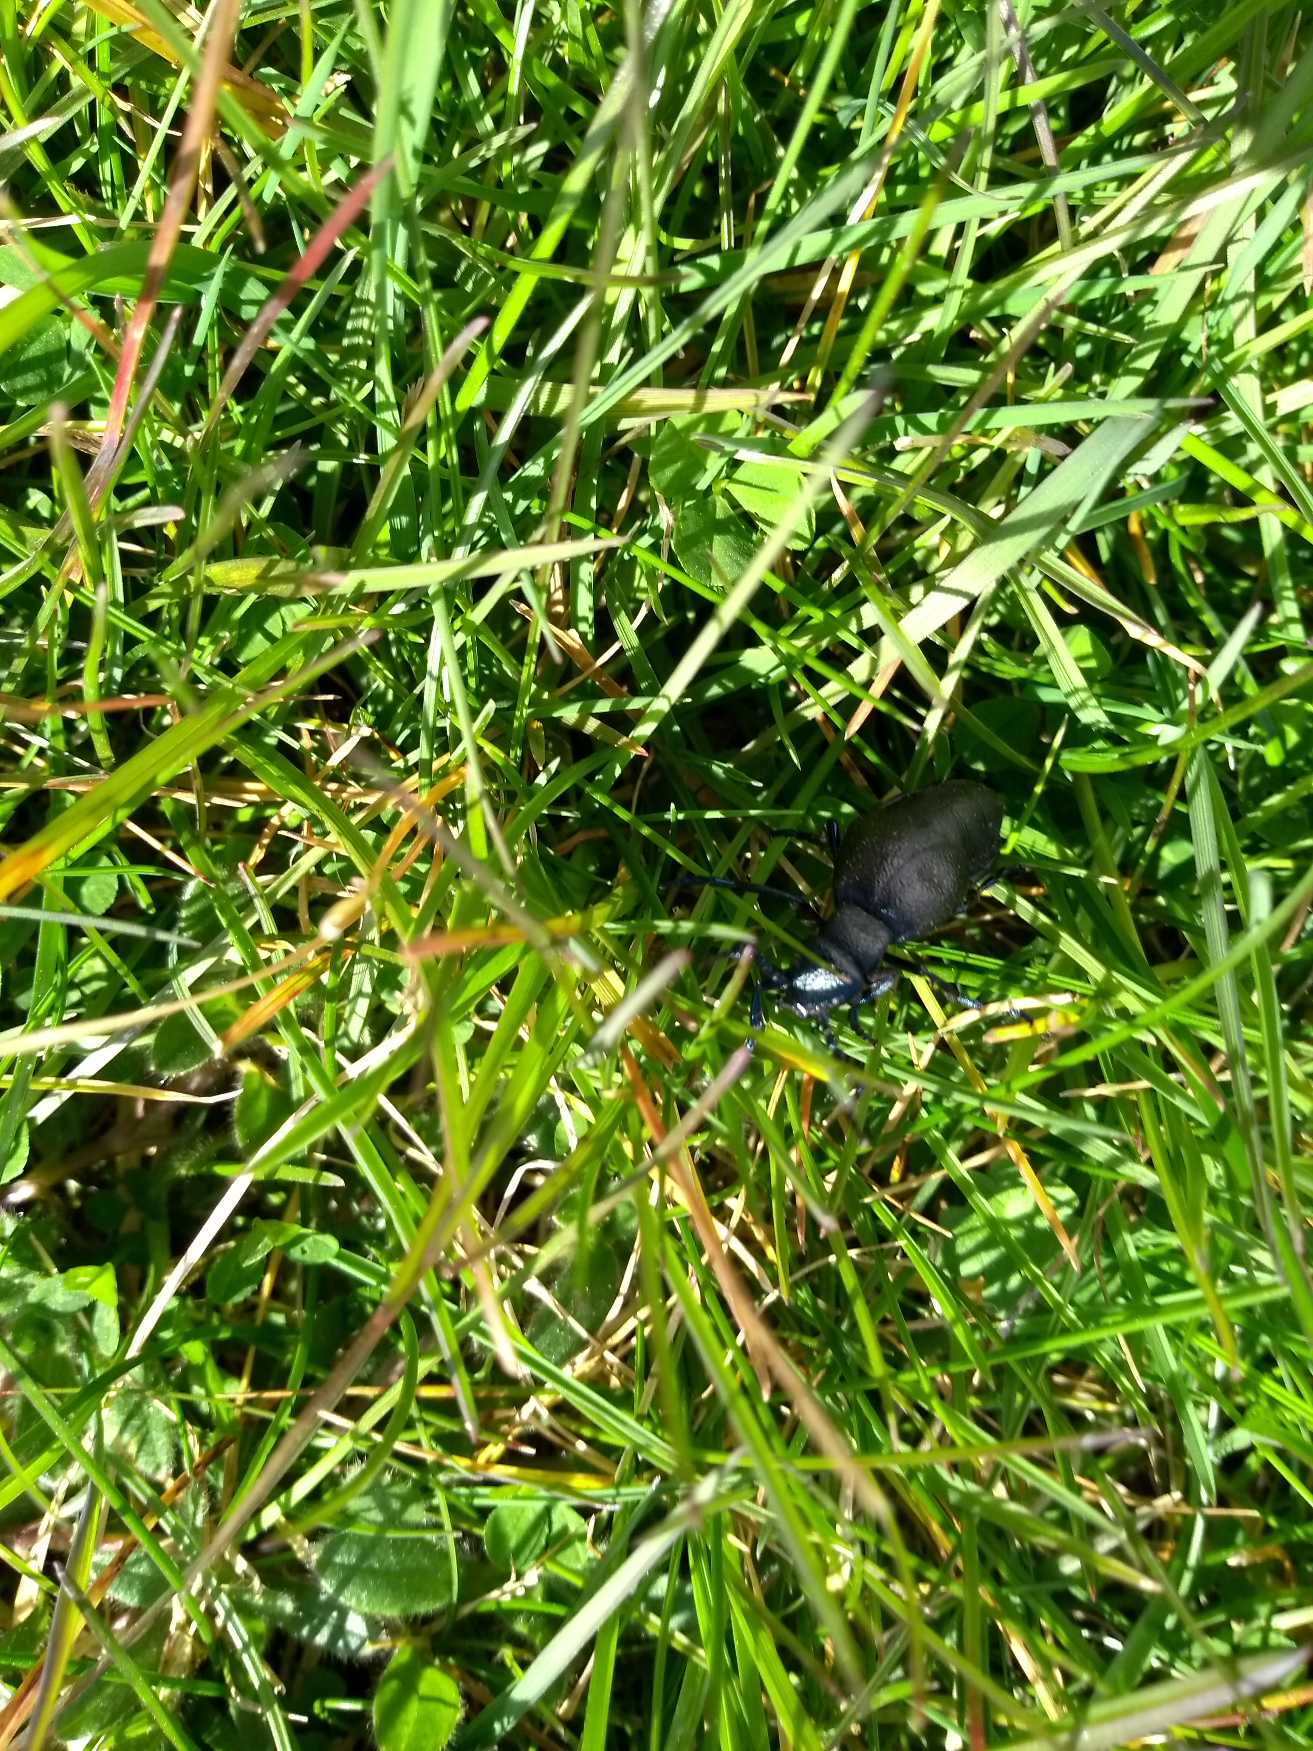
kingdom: Animalia
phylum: Arthropoda
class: Insecta
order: Coleoptera
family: Meloidae
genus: Meloe
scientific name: Meloe proscarabaeus
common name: Sort oliebille
